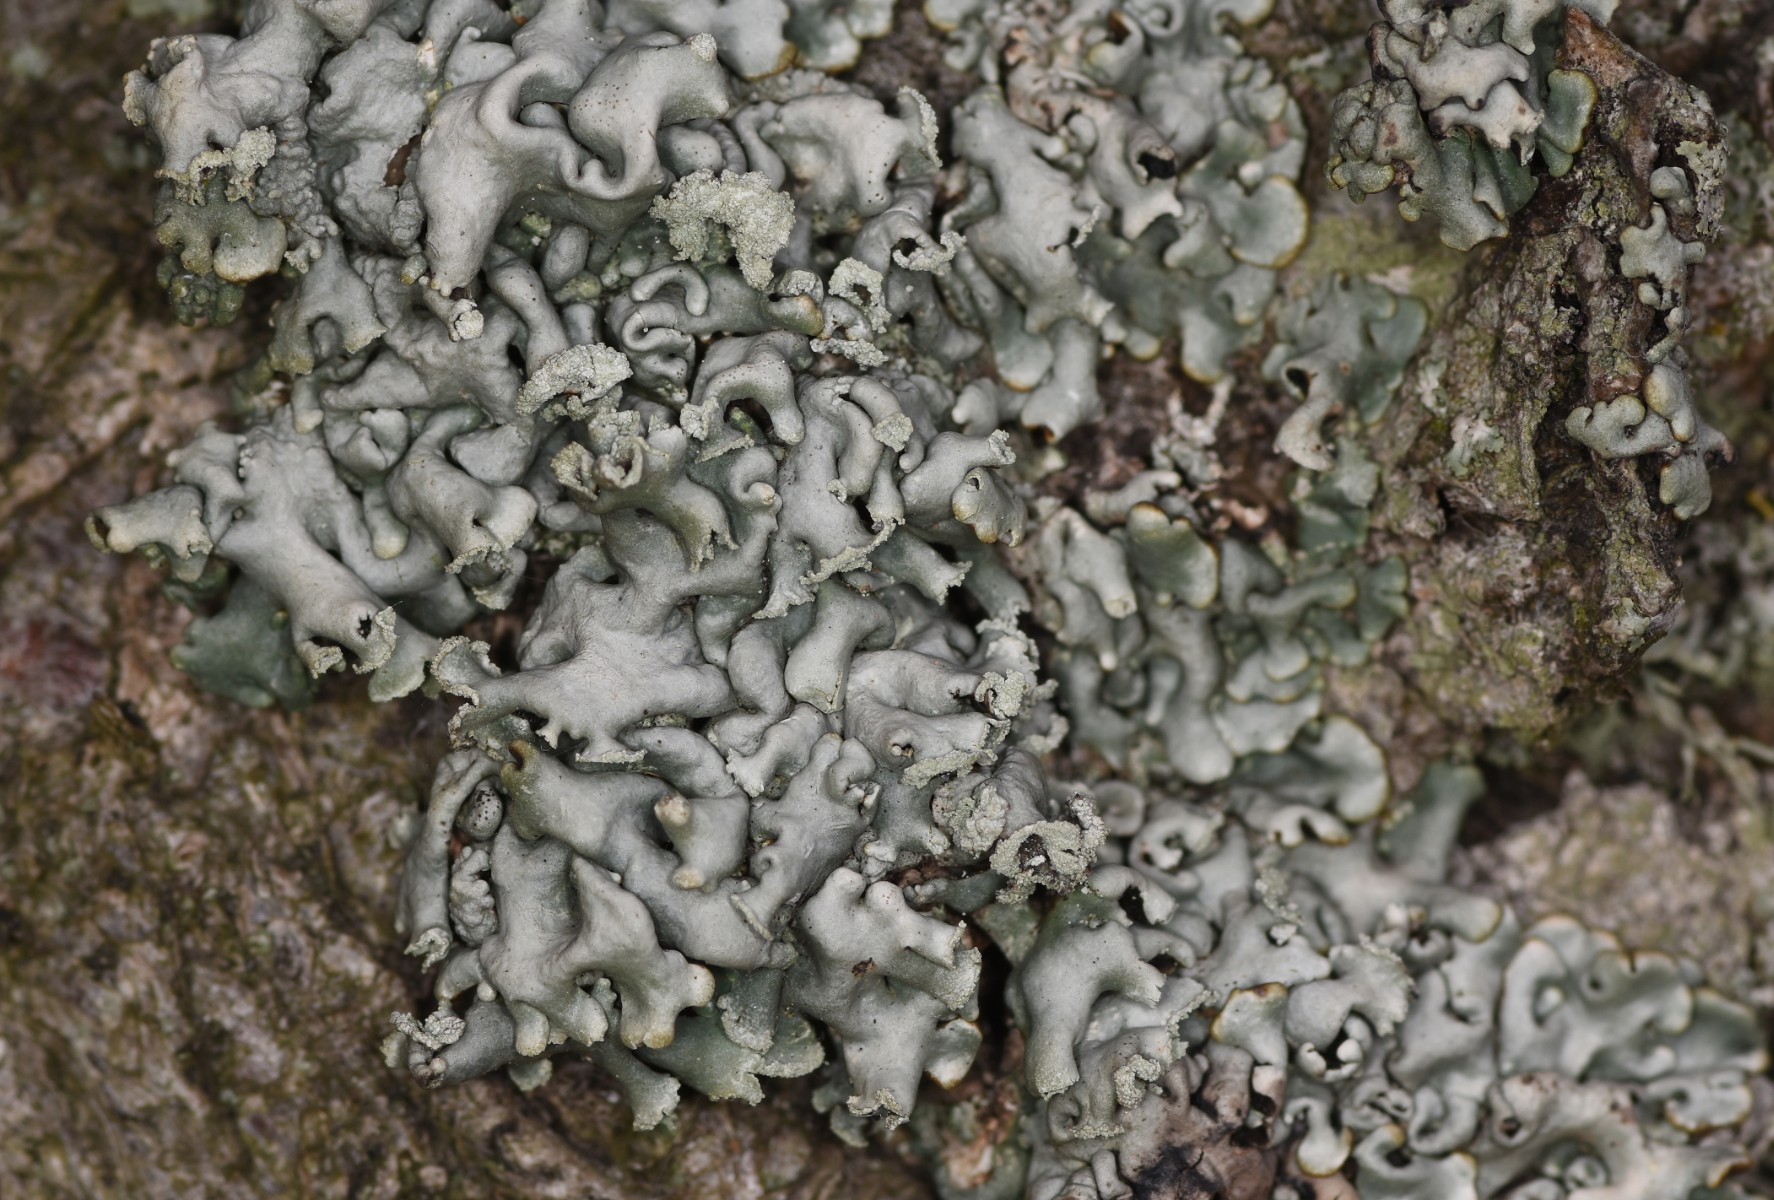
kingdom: Fungi
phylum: Ascomycota
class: Lecanoromycetes
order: Lecanorales
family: Parmeliaceae
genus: Hypogymnia
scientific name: Hypogymnia physodes
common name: almindelig kvistlav
